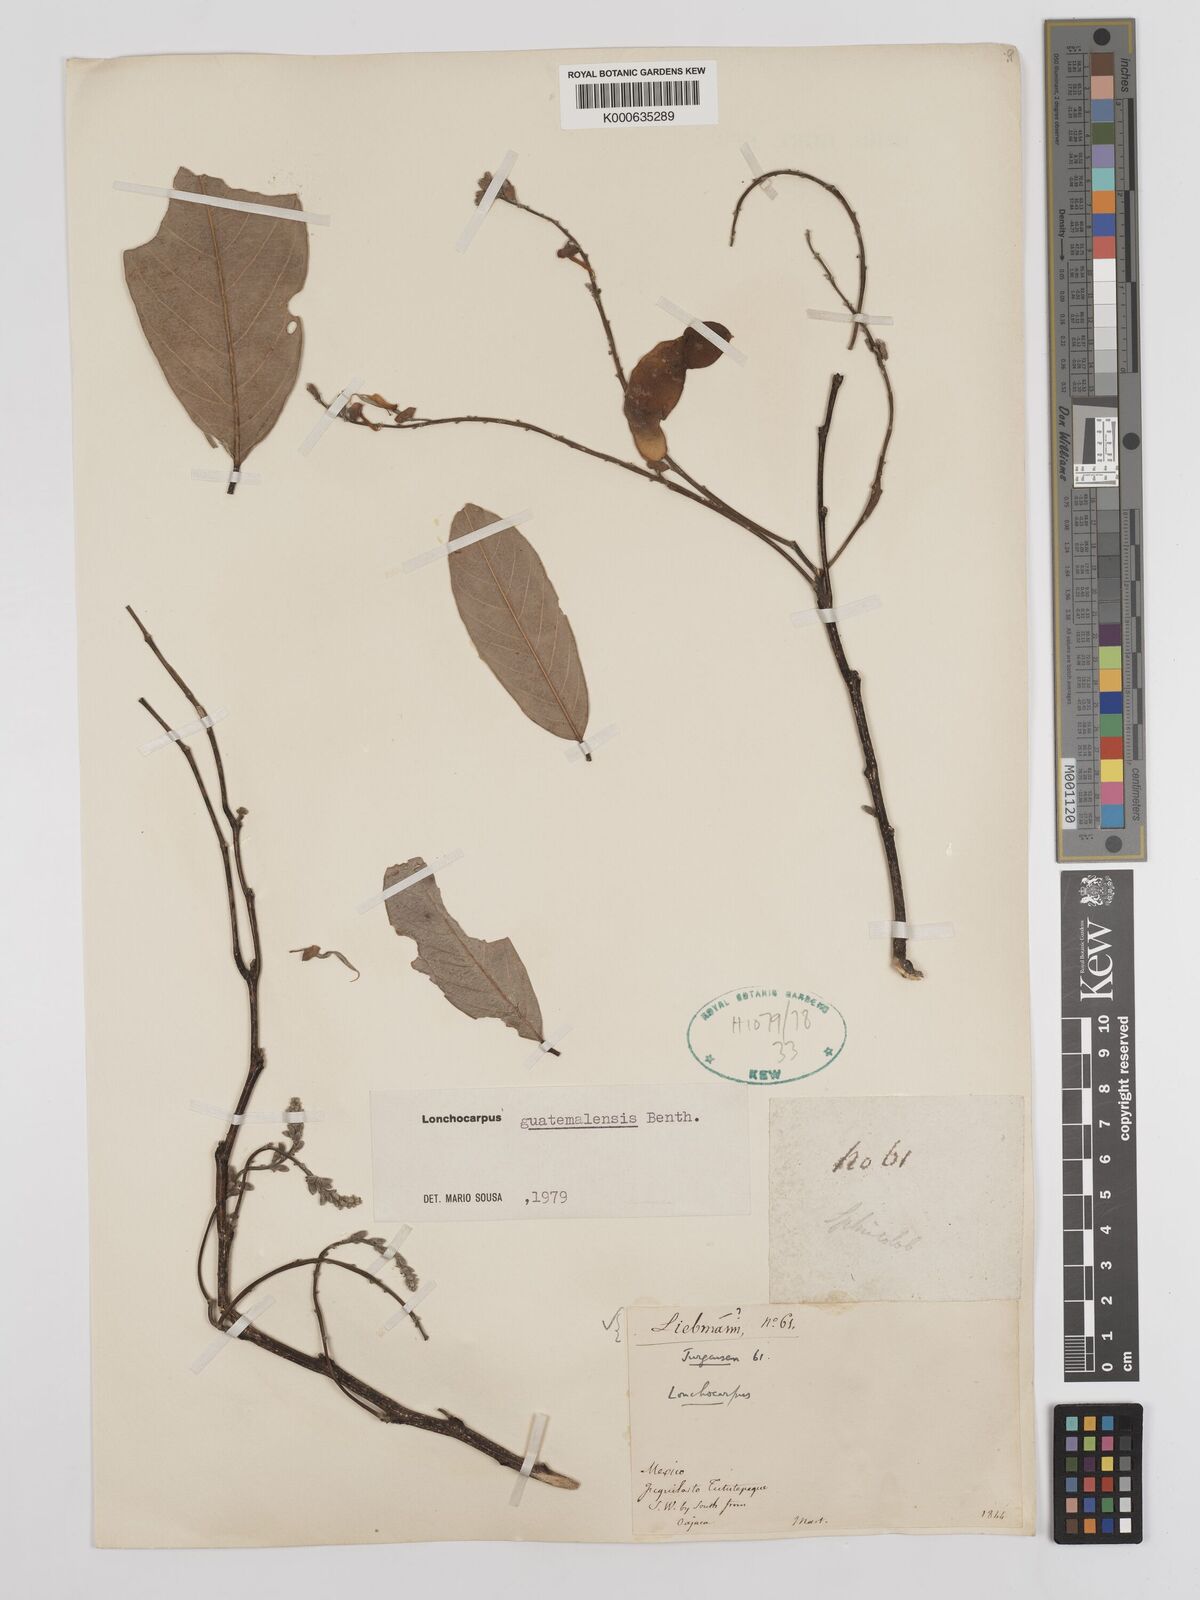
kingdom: Plantae
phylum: Tracheophyta
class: Magnoliopsida
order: Fabales
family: Fabaceae
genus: Lonchocarpus
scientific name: Lonchocarpus guatemalensis
